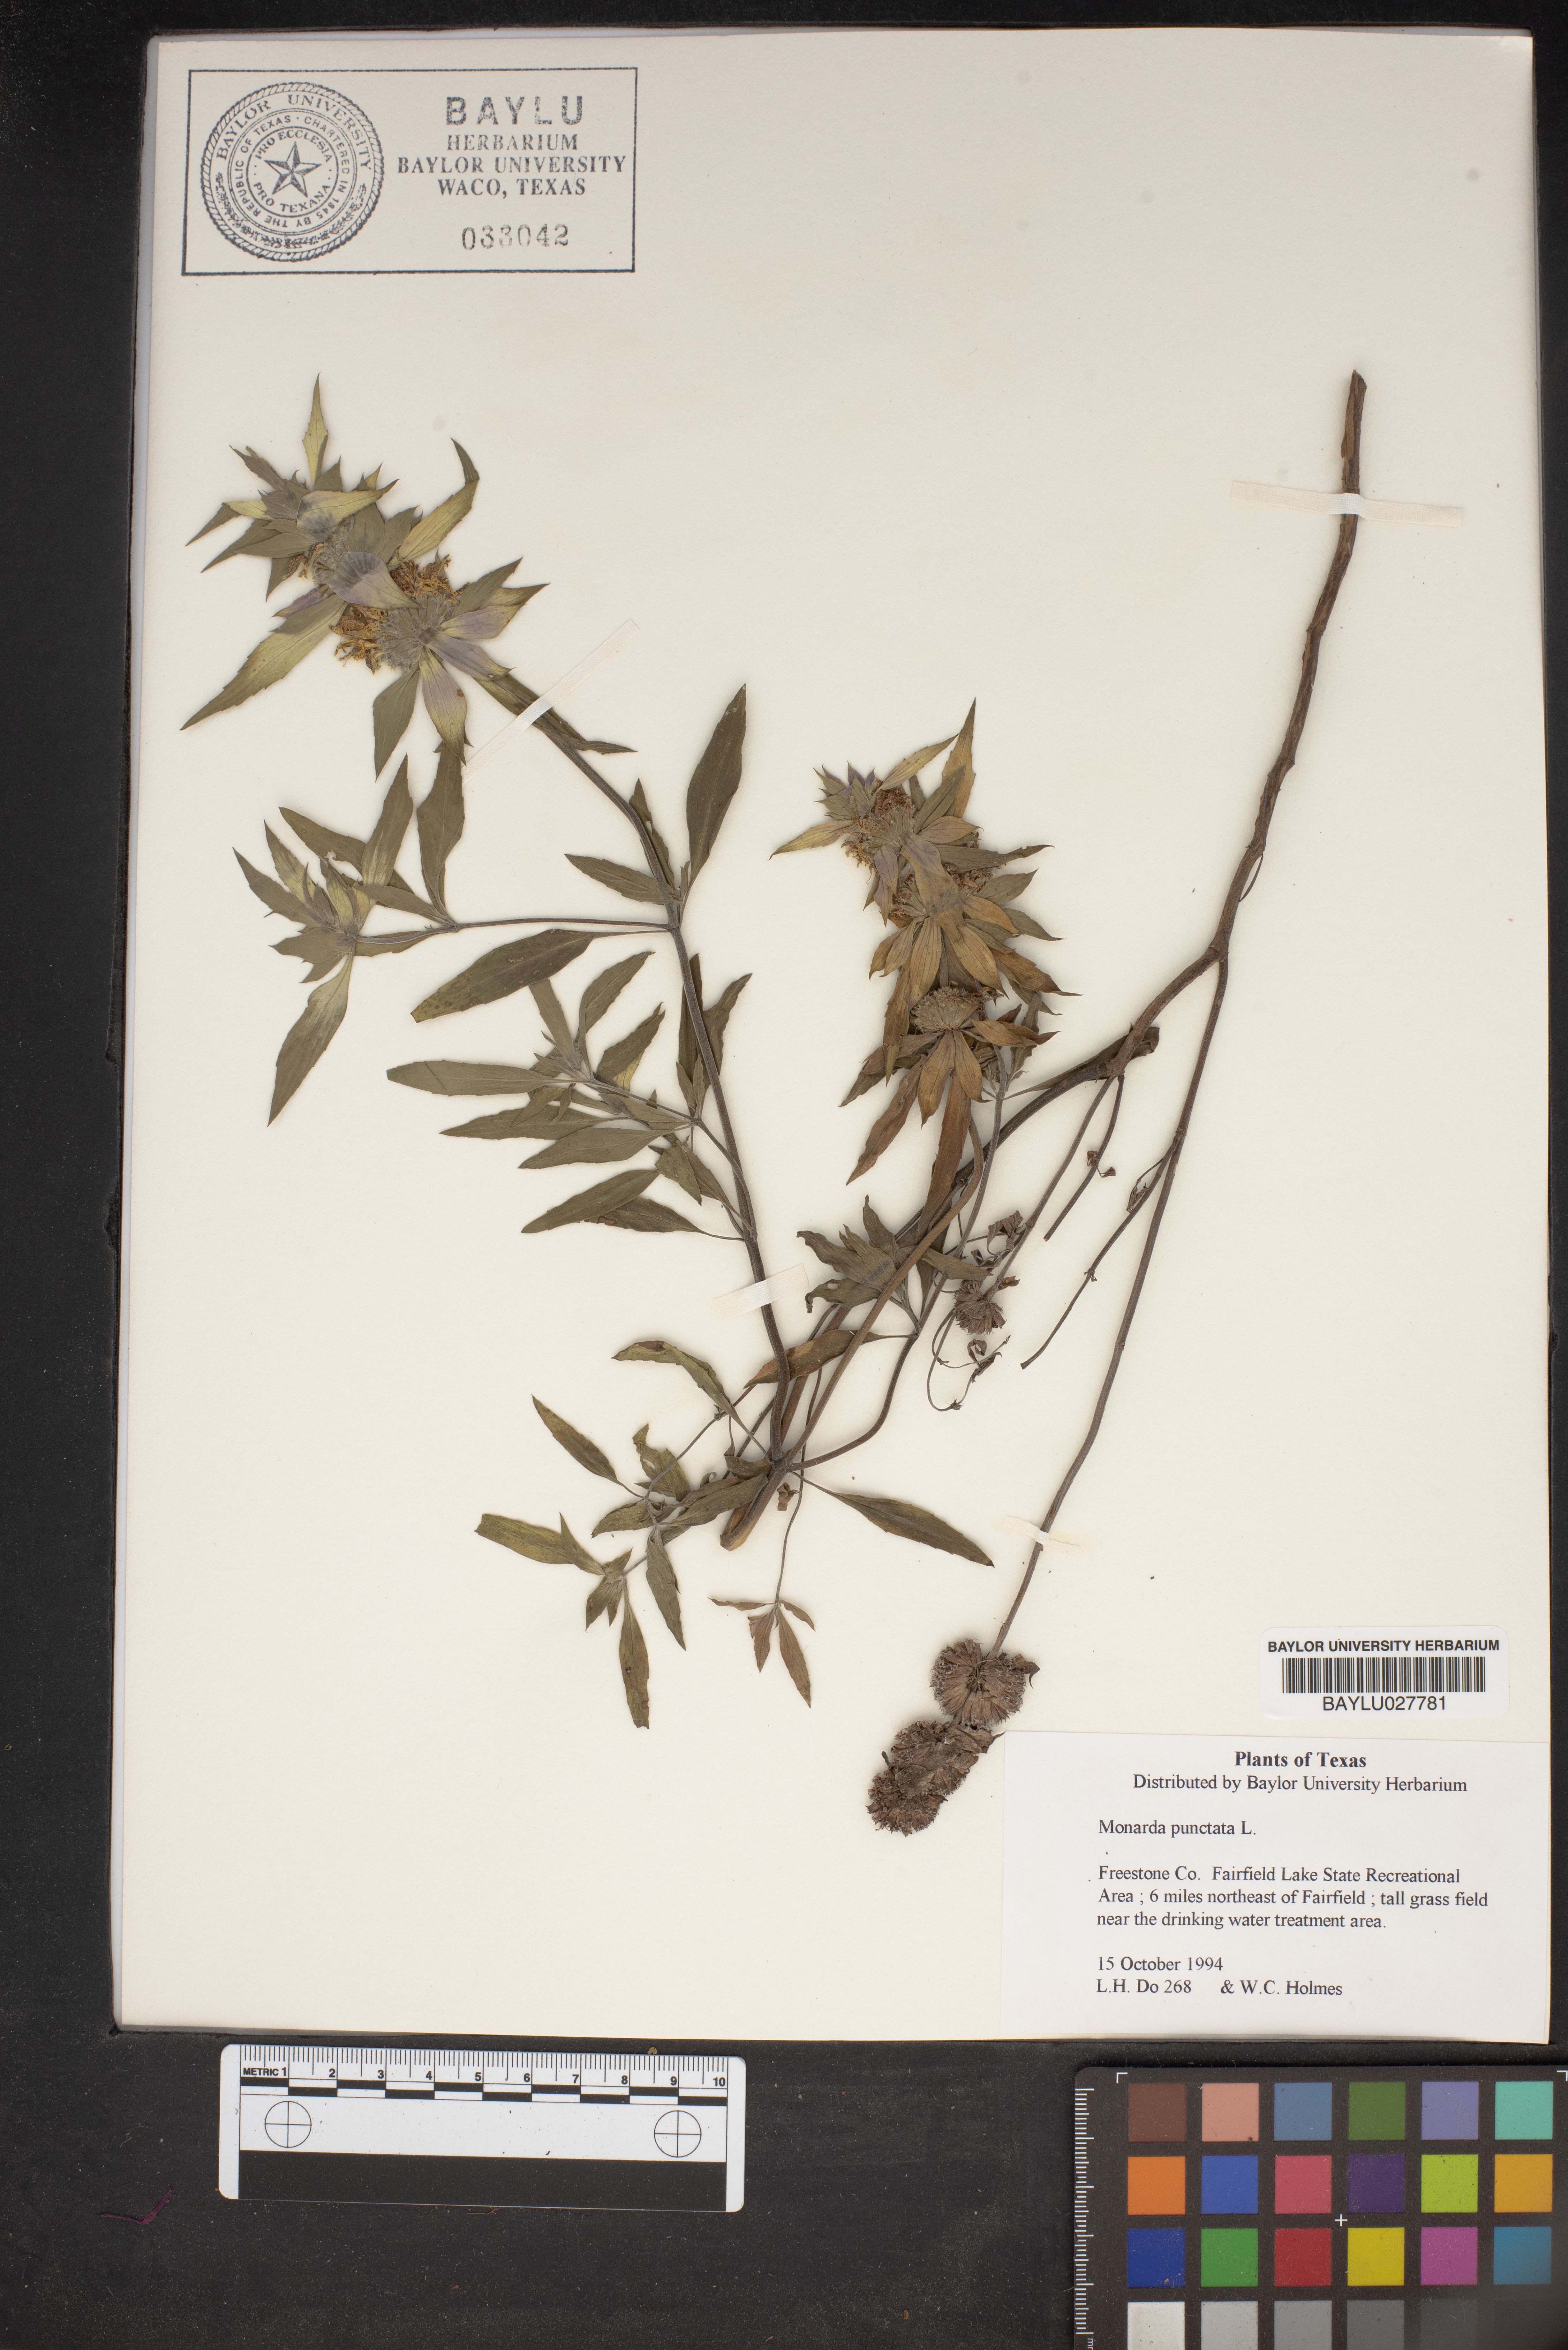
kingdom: Plantae
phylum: Tracheophyta
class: Magnoliopsida
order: Lamiales
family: Lamiaceae
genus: Monarda
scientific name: Monarda punctata
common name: Dotted monarda
